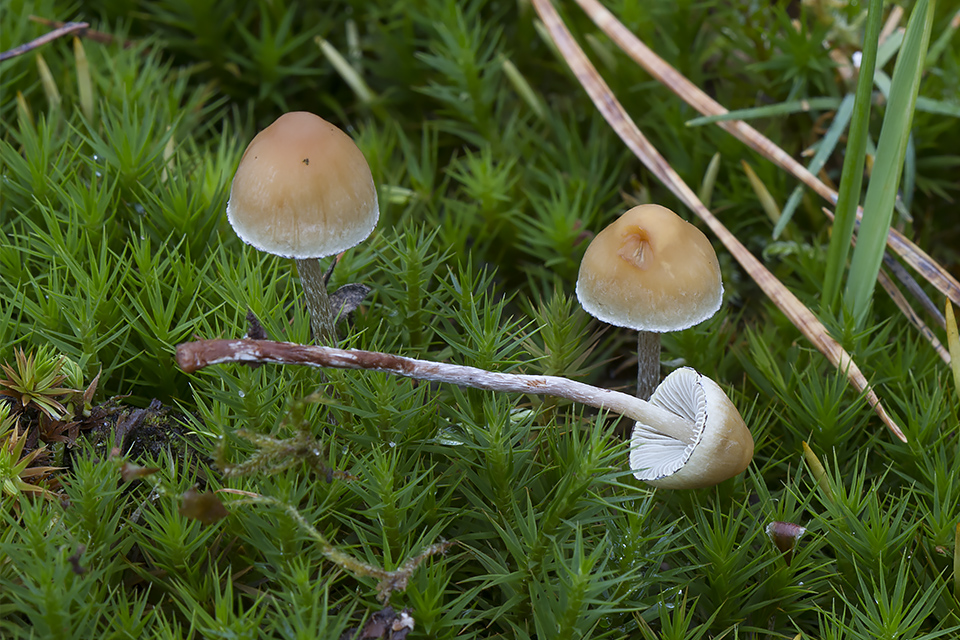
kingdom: Fungi
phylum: Basidiomycota
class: Agaricomycetes
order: Agaricales
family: Strophariaceae
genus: Hypholoma
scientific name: Hypholoma marginatum
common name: enlig svovlhat
